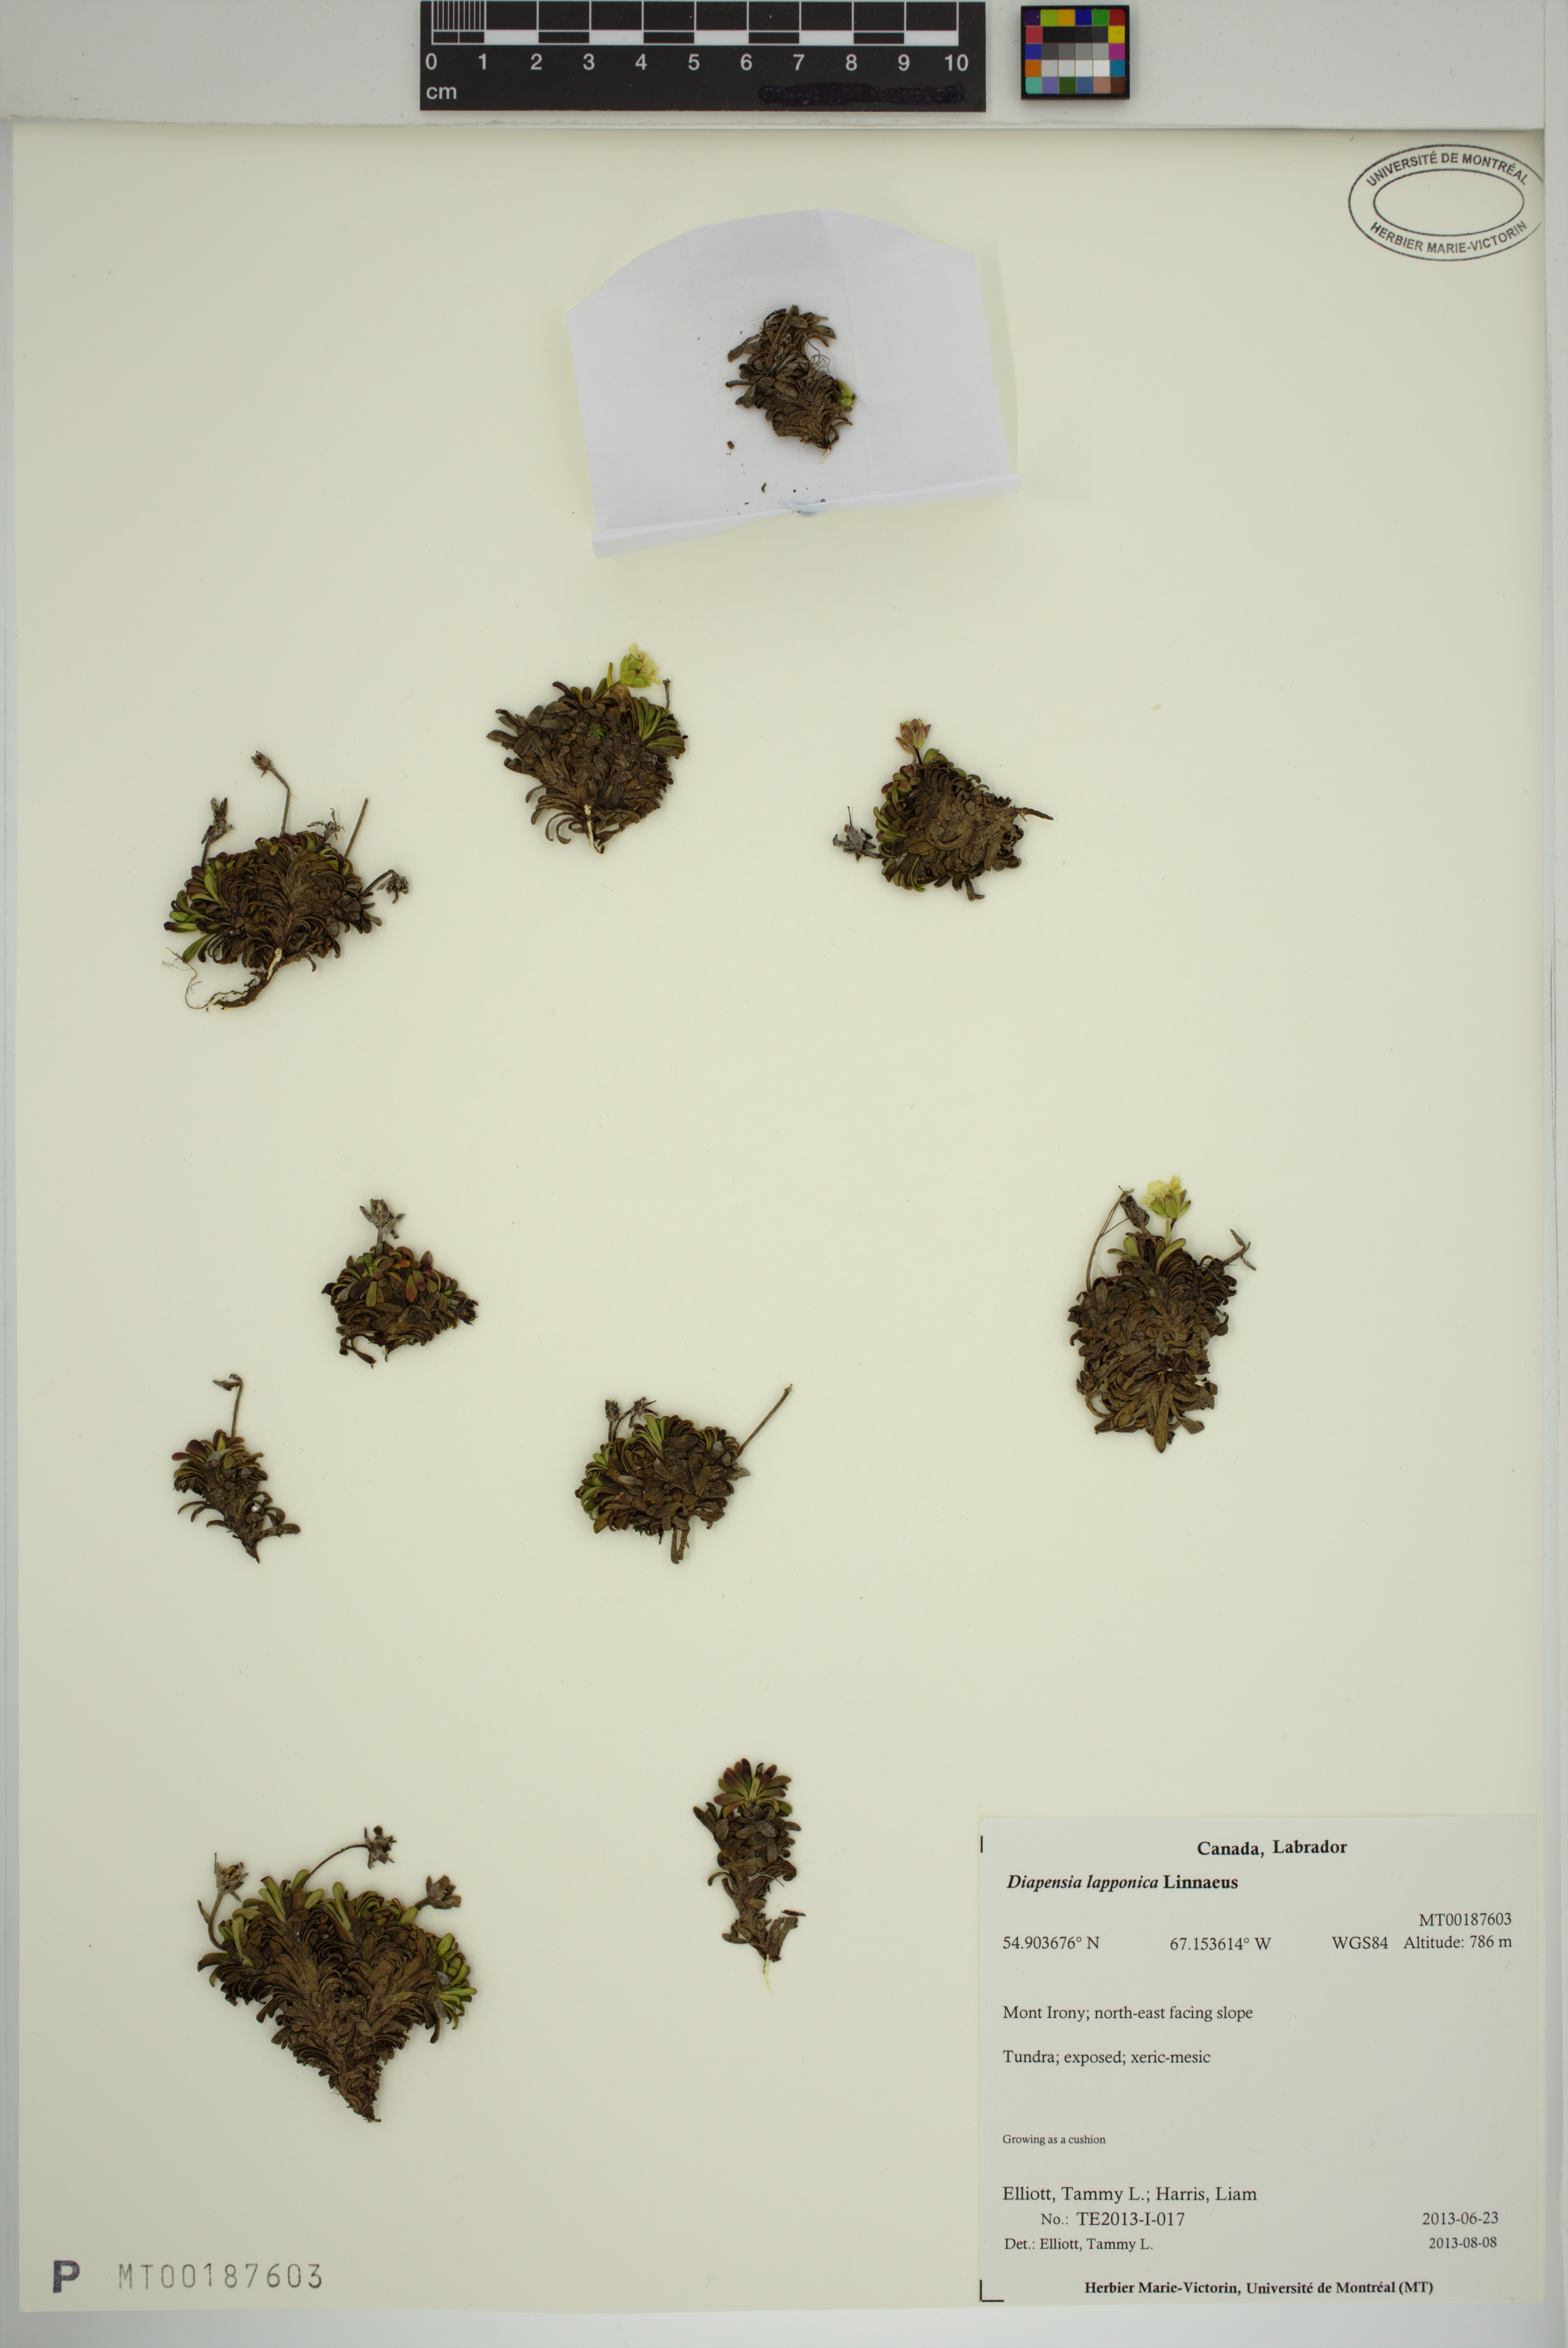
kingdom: Plantae
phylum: Tracheophyta
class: Magnoliopsida
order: Ericales
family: Diapensiaceae
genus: Diapensia
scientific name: Diapensia lapponica
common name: Diapensia
